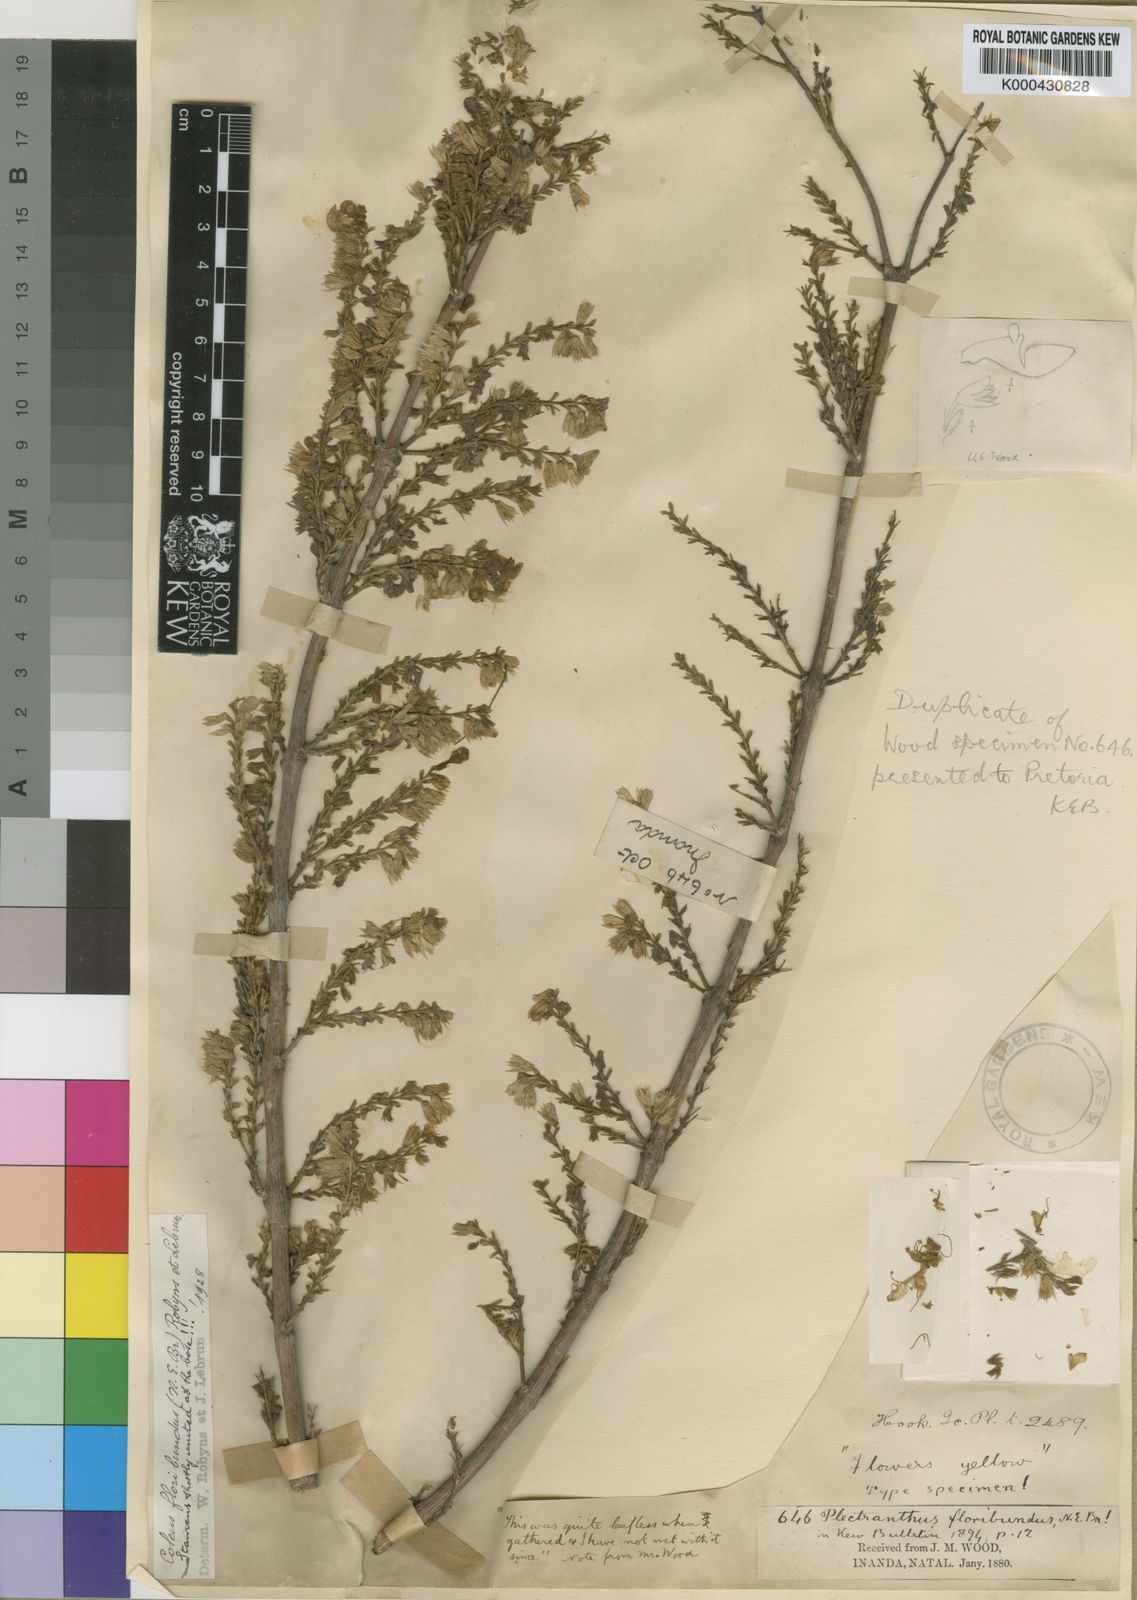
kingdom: Plantae
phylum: Tracheophyta
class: Magnoliopsida
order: Lamiales
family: Lamiaceae
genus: Coleus
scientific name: Coleus esculentus
